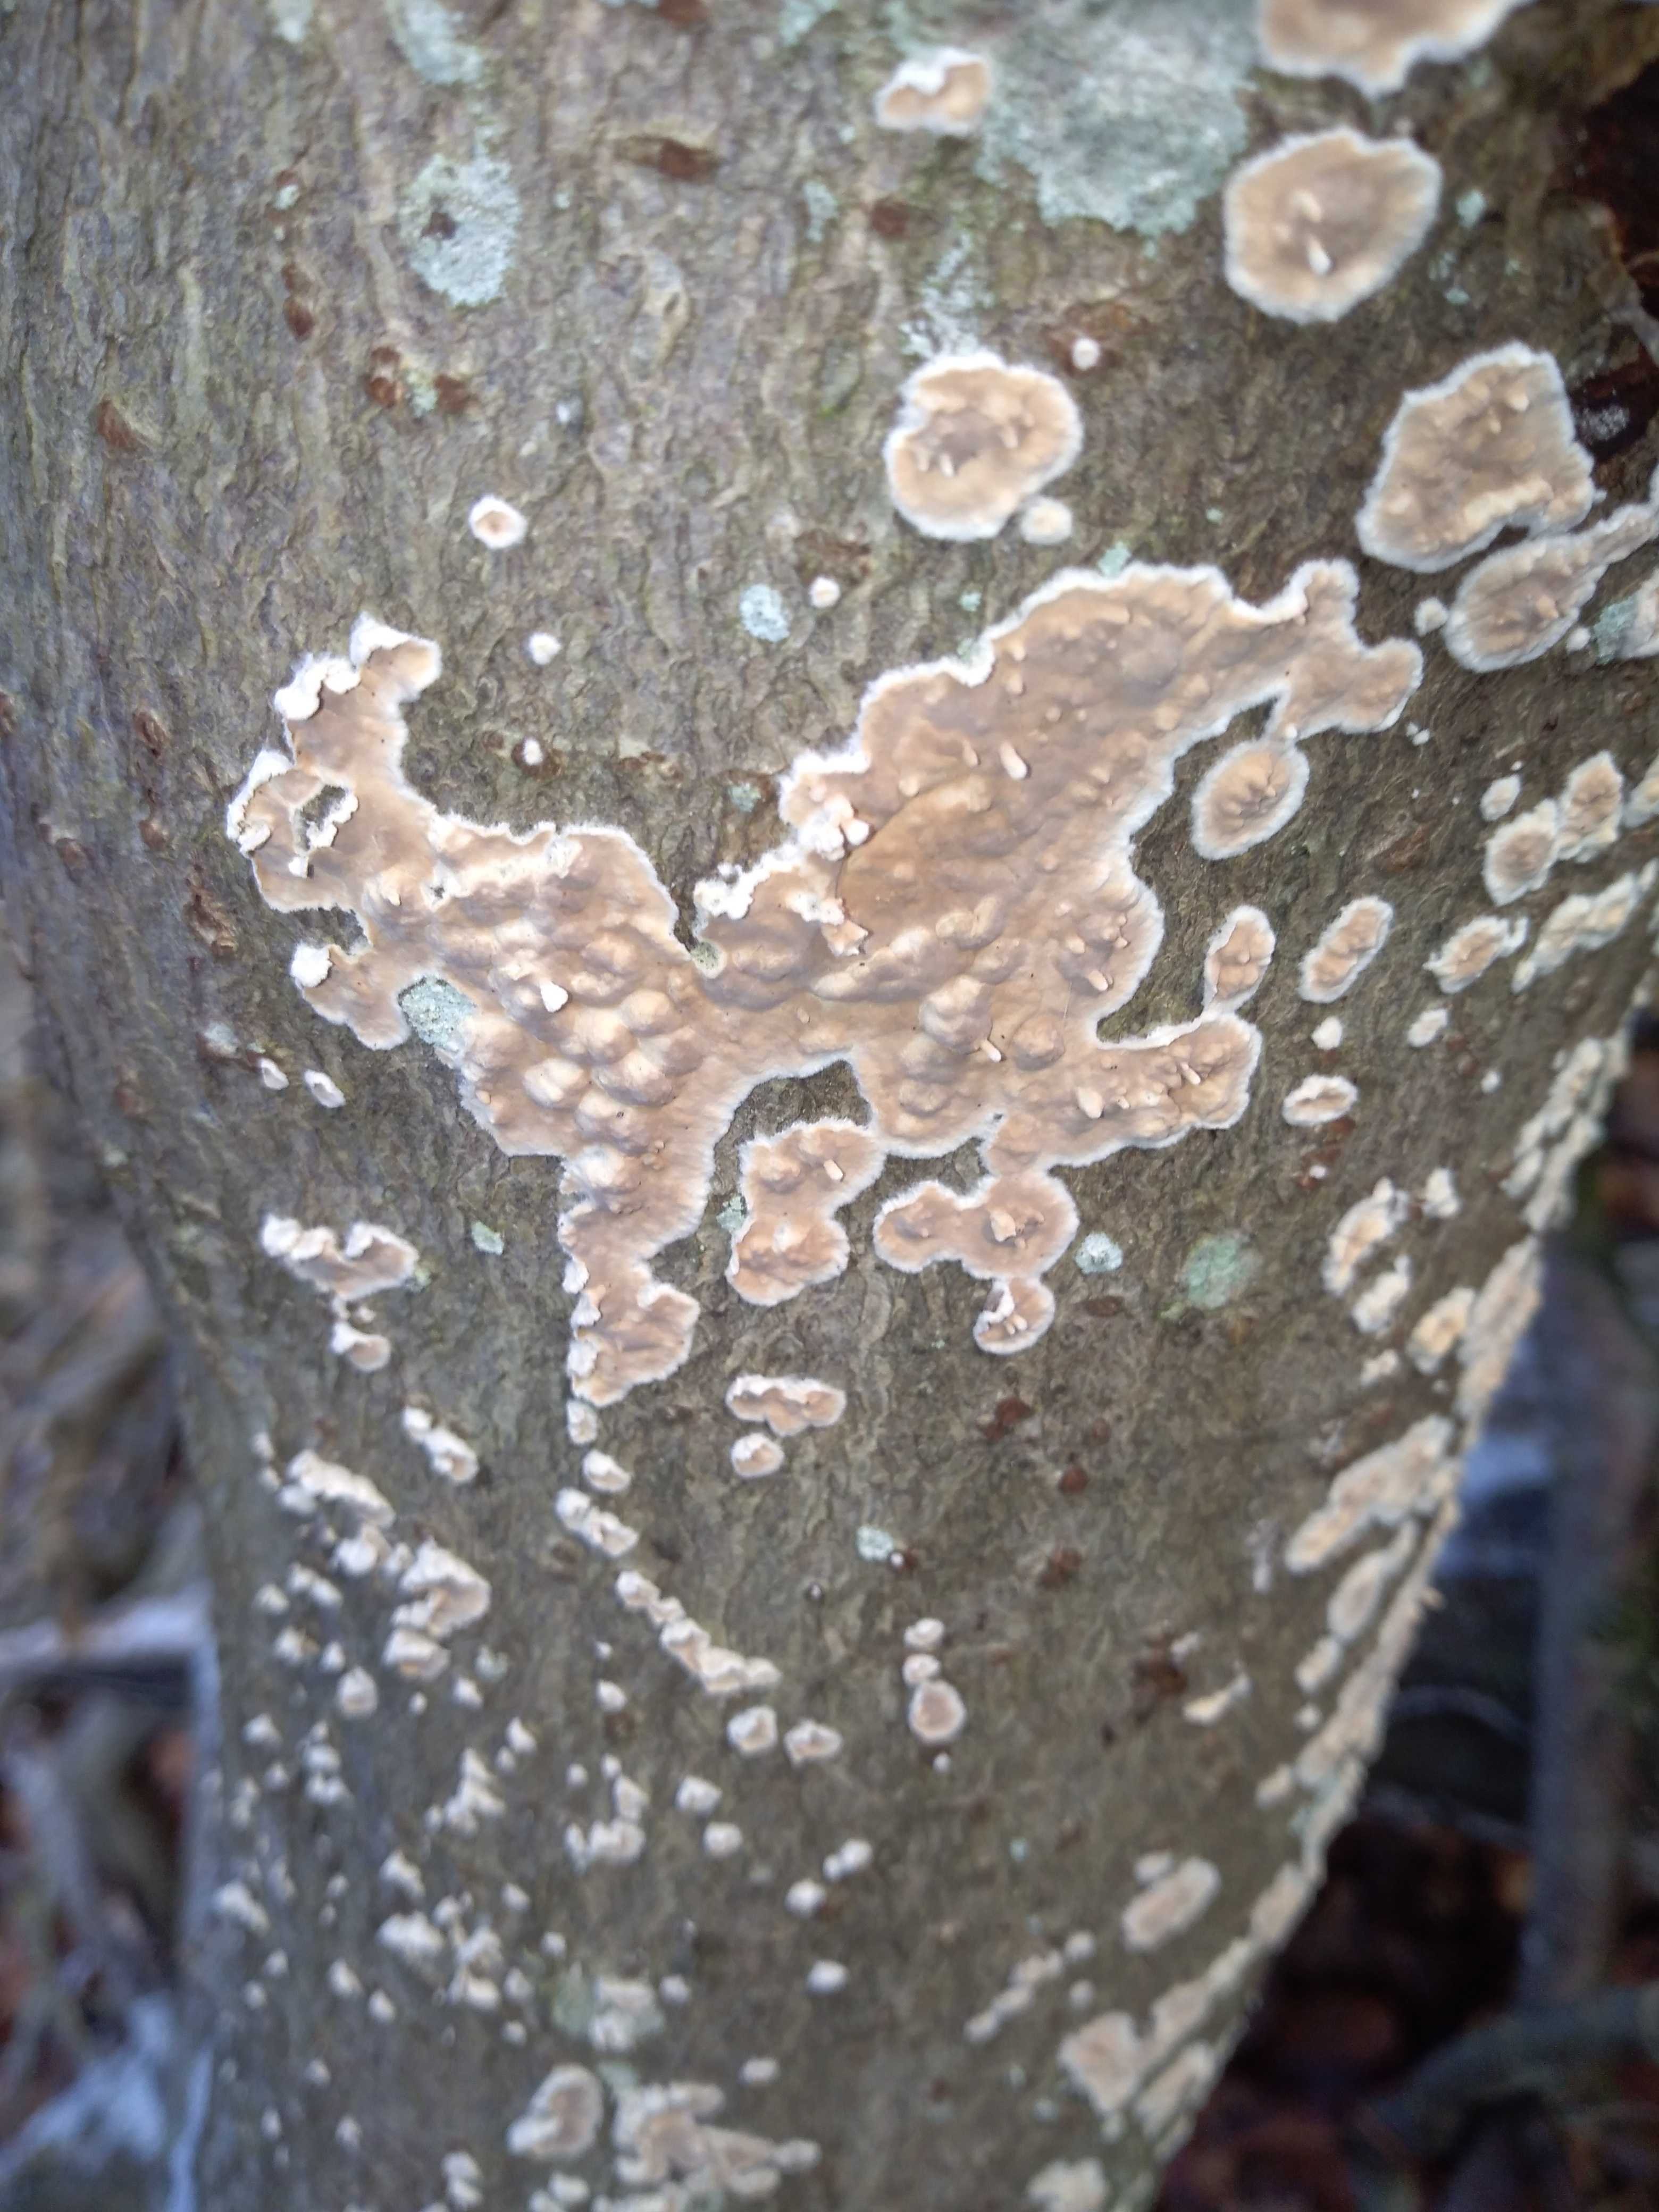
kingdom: Fungi
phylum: Basidiomycota
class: Agaricomycetes
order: Agaricales
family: Physalacriaceae
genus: Cylindrobasidium
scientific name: Cylindrobasidium evolvens
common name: sprækkehinde
